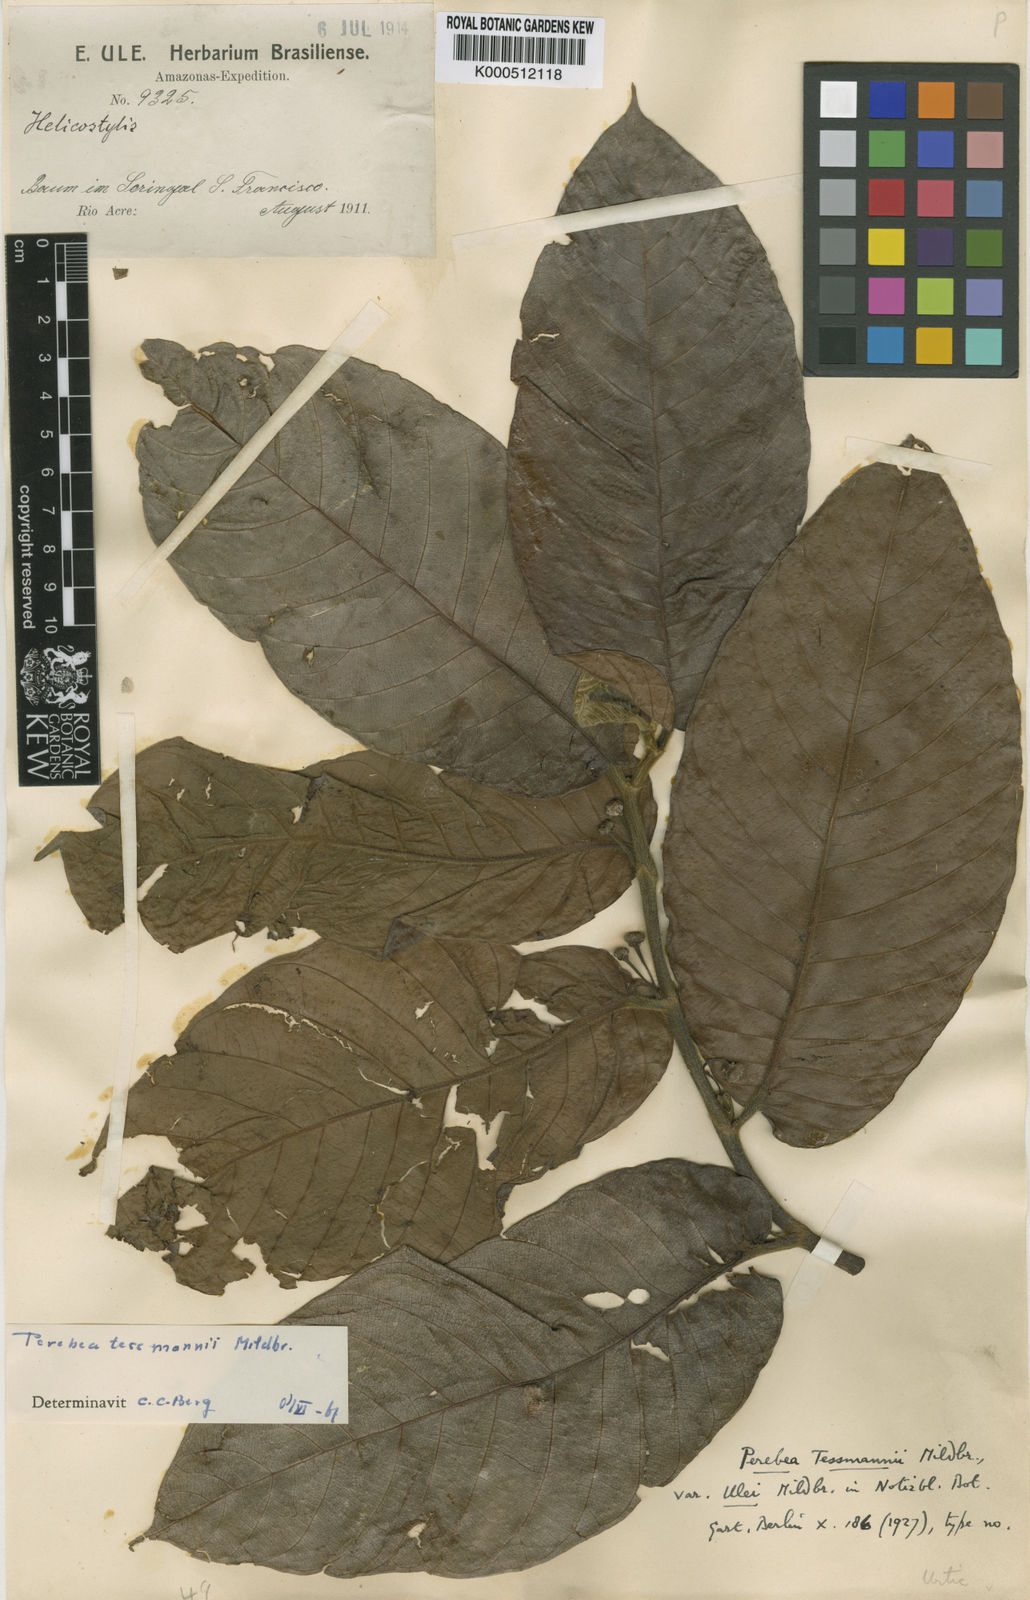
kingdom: Plantae
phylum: Tracheophyta
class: Magnoliopsida
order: Rosales
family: Moraceae
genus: Perebea
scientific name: Perebea tessmannii
